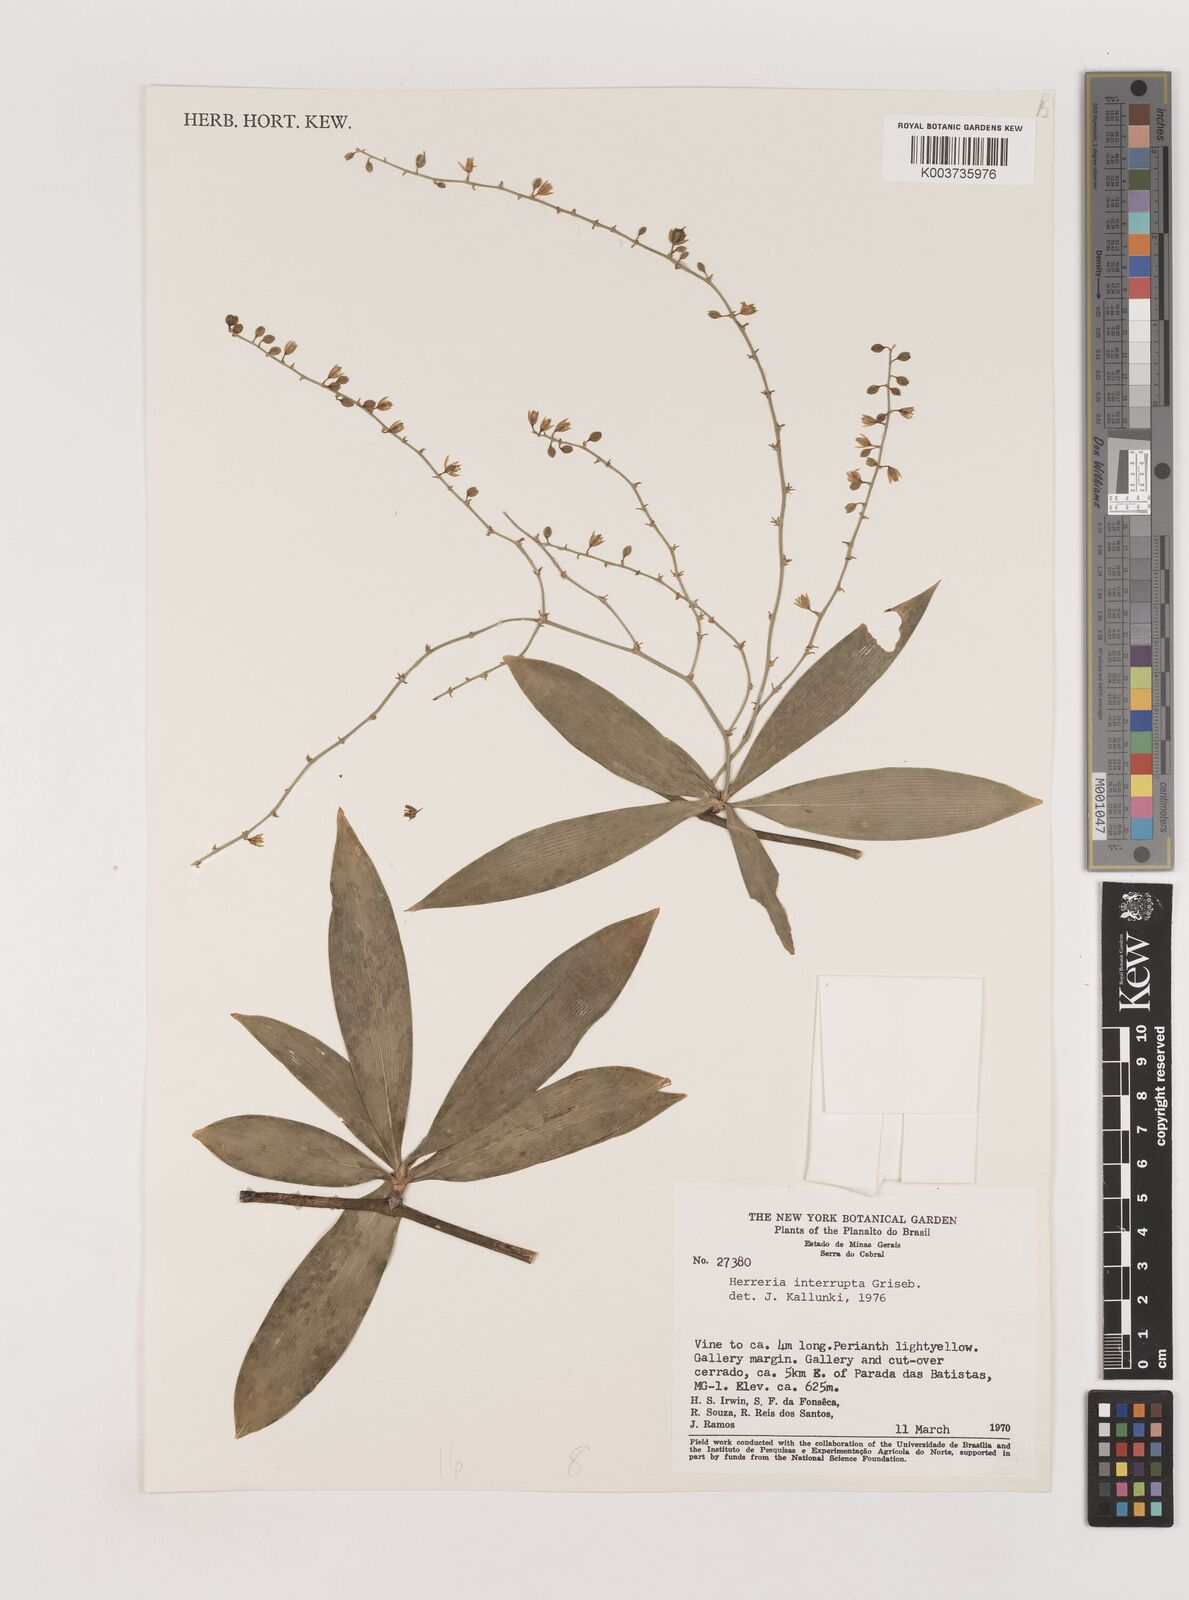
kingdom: Plantae
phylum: Tracheophyta
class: Liliopsida
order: Asparagales
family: Asparagaceae
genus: Herreria
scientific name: Herreria salsaparilha
